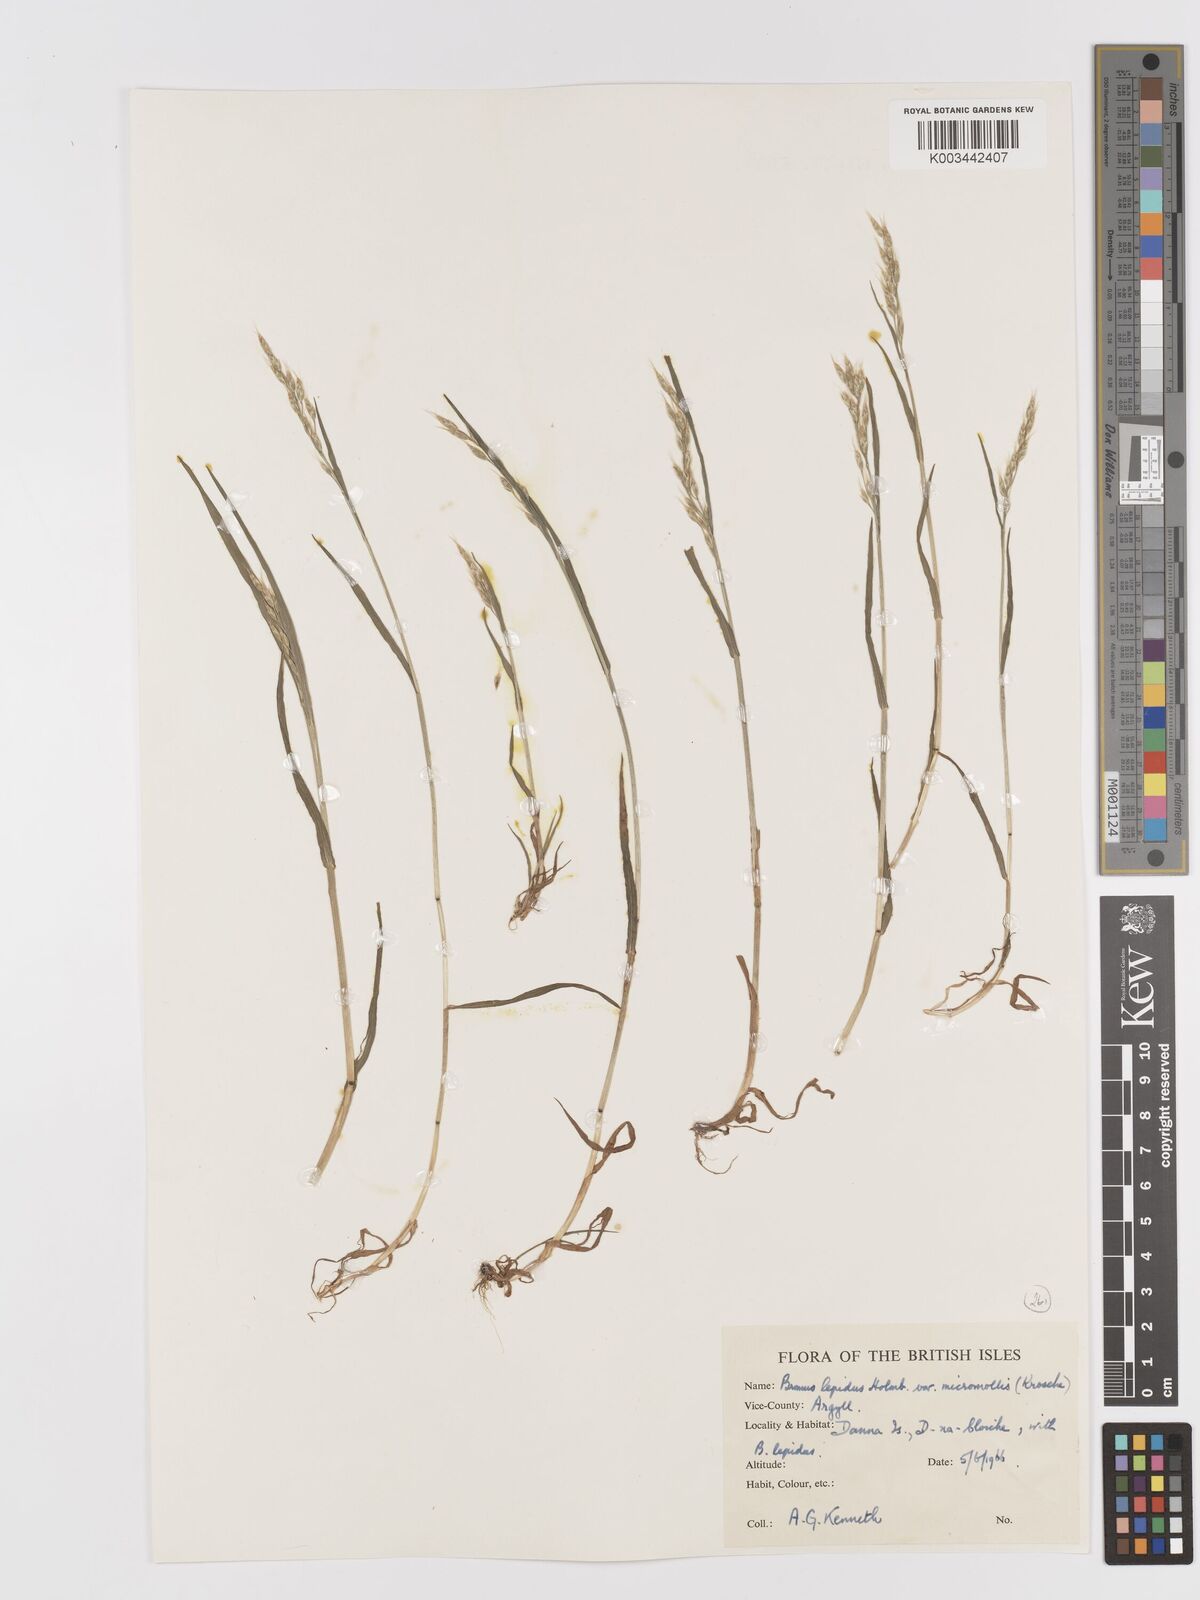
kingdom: Plantae
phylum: Tracheophyta
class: Liliopsida
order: Poales
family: Poaceae
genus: Bromus
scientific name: Bromus lepidus
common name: Slender soft-brome
